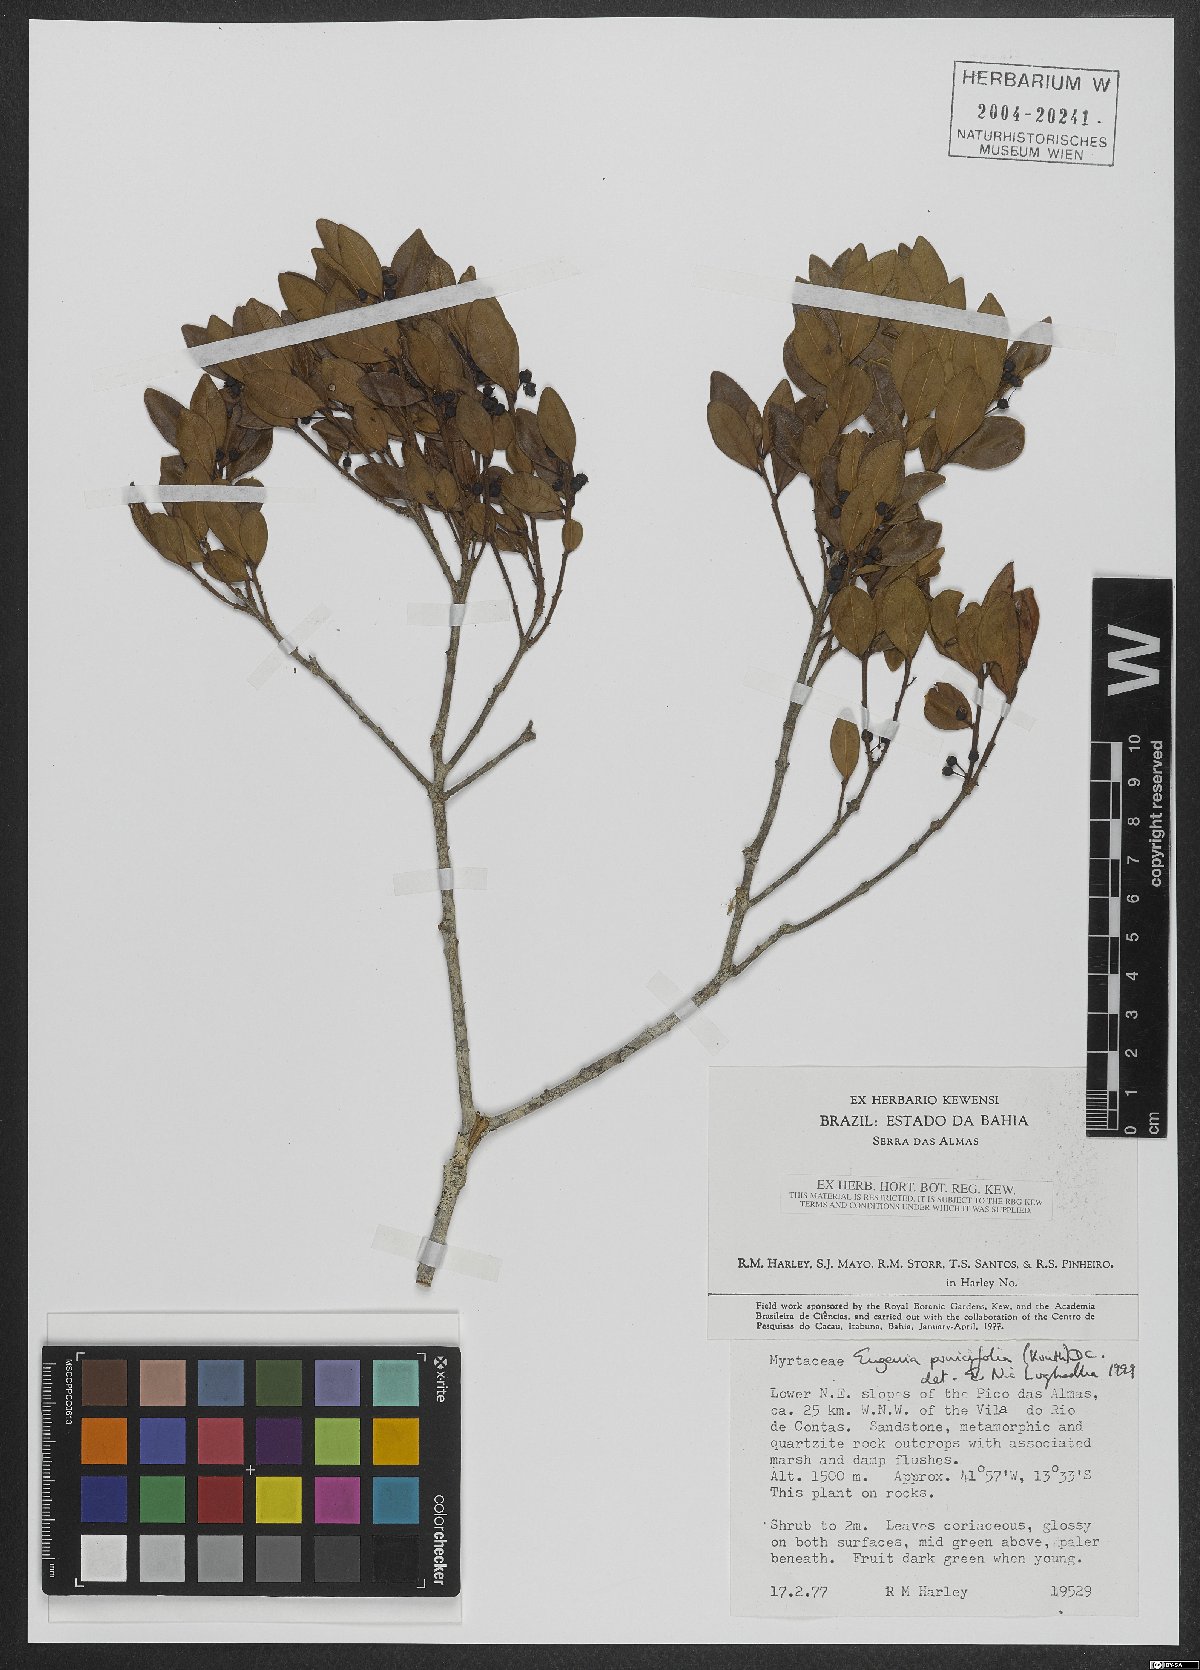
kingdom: Plantae
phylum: Tracheophyta
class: Magnoliopsida
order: Myrtales
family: Myrtaceae
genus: Eugenia
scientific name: Eugenia punicifolia
